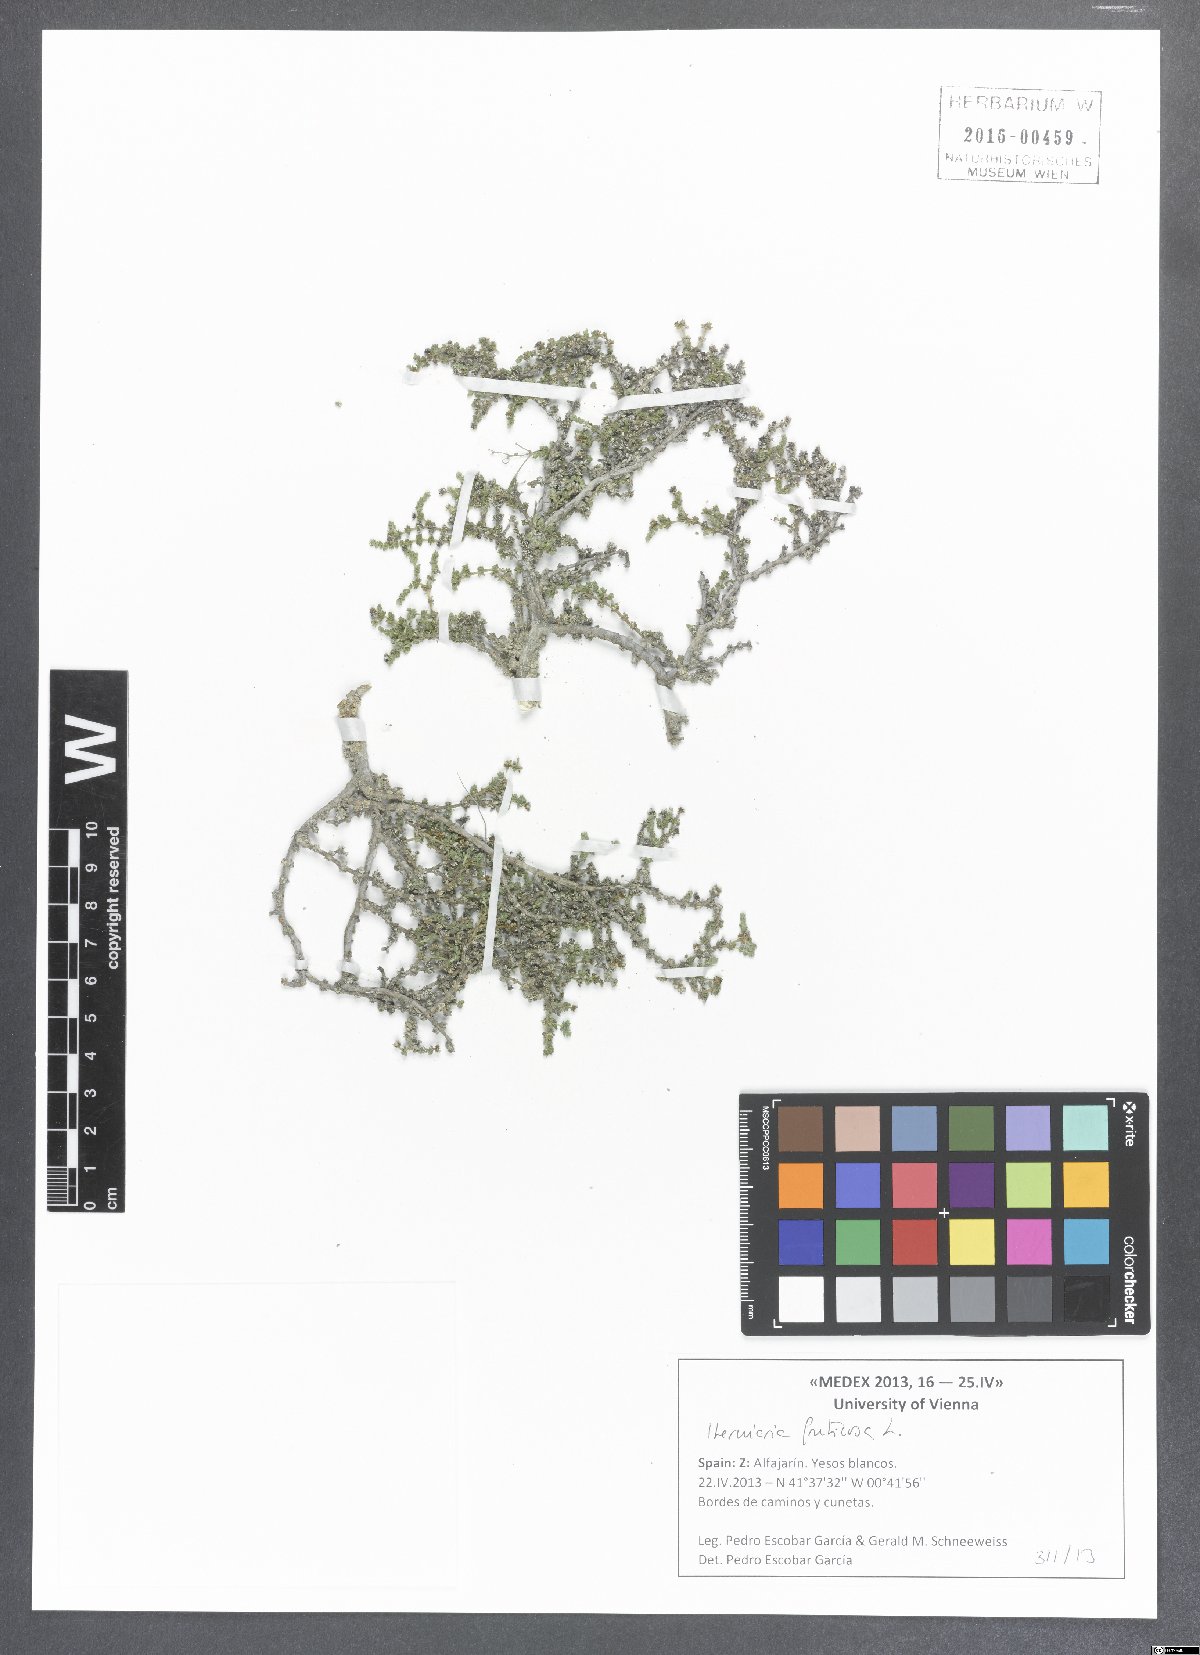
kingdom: Plantae
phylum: Tracheophyta
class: Magnoliopsida
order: Caryophyllales
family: Caryophyllaceae
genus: Herniaria
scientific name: Herniaria fruticosa
